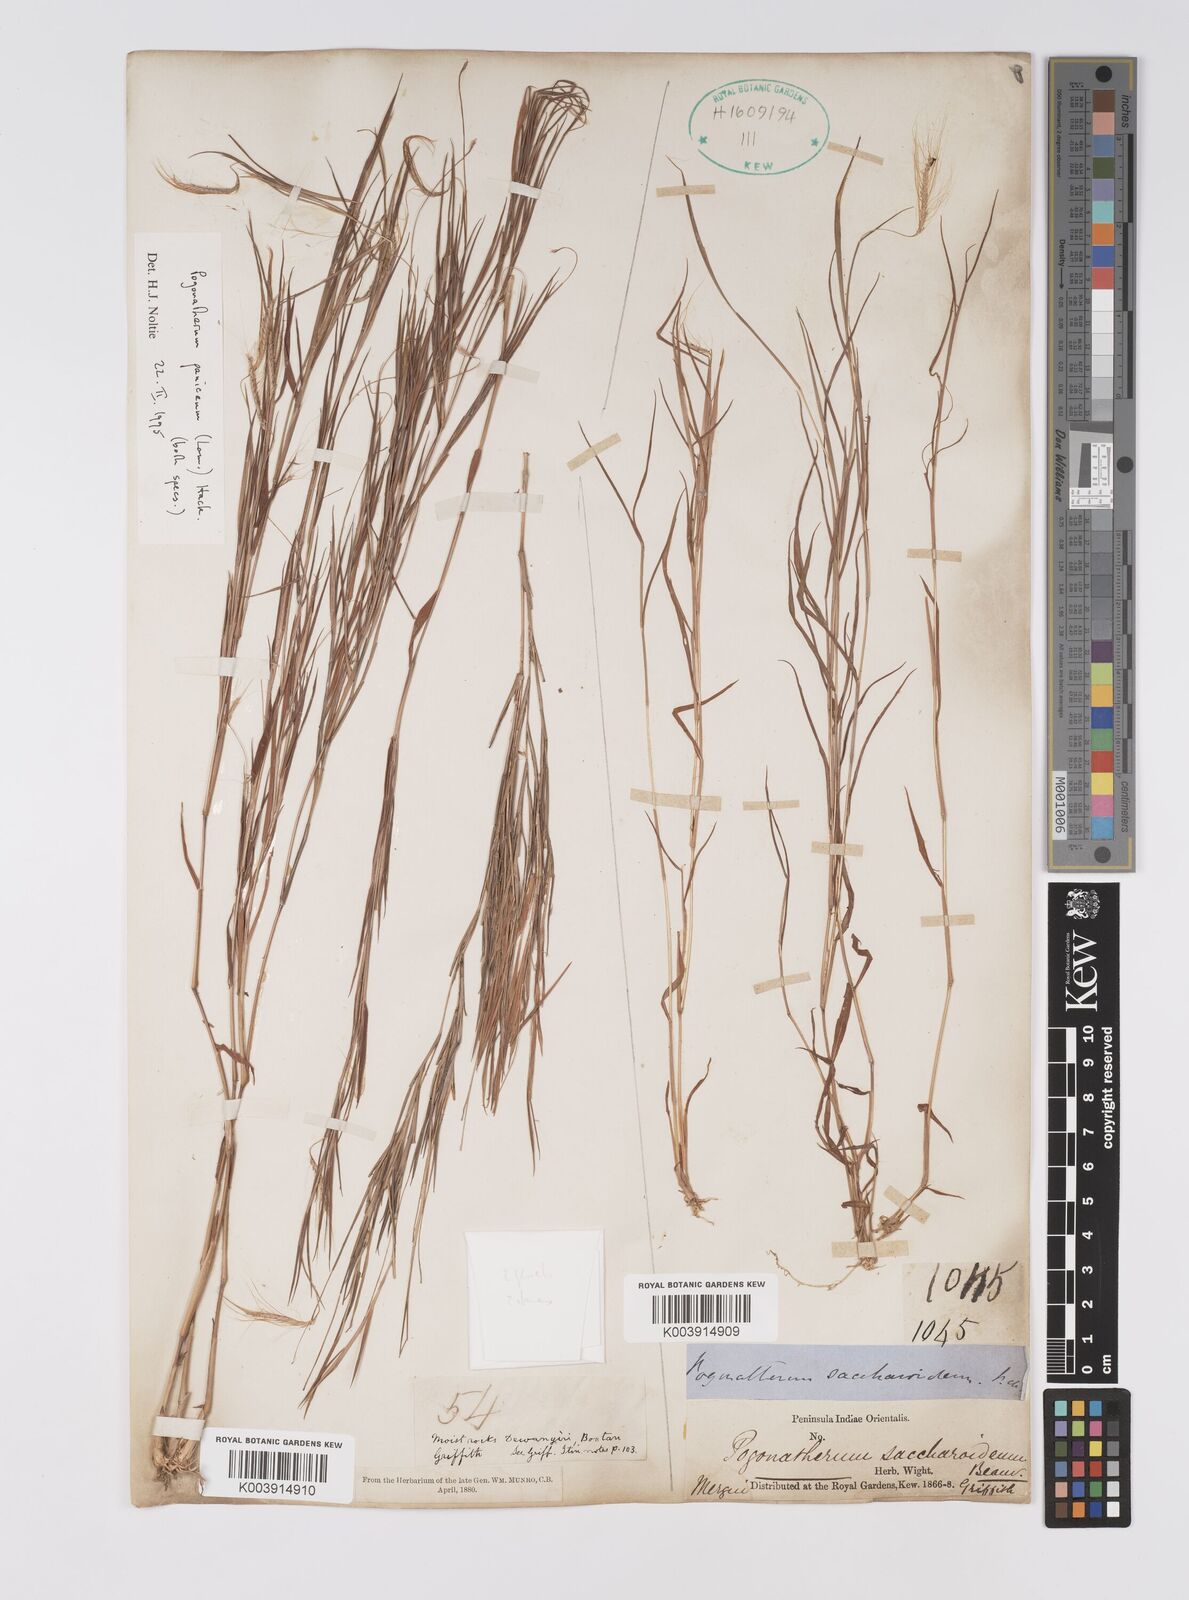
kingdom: Plantae
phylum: Tracheophyta
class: Liliopsida
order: Poales
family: Poaceae
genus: Pogonatherum
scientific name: Pogonatherum paniceum
